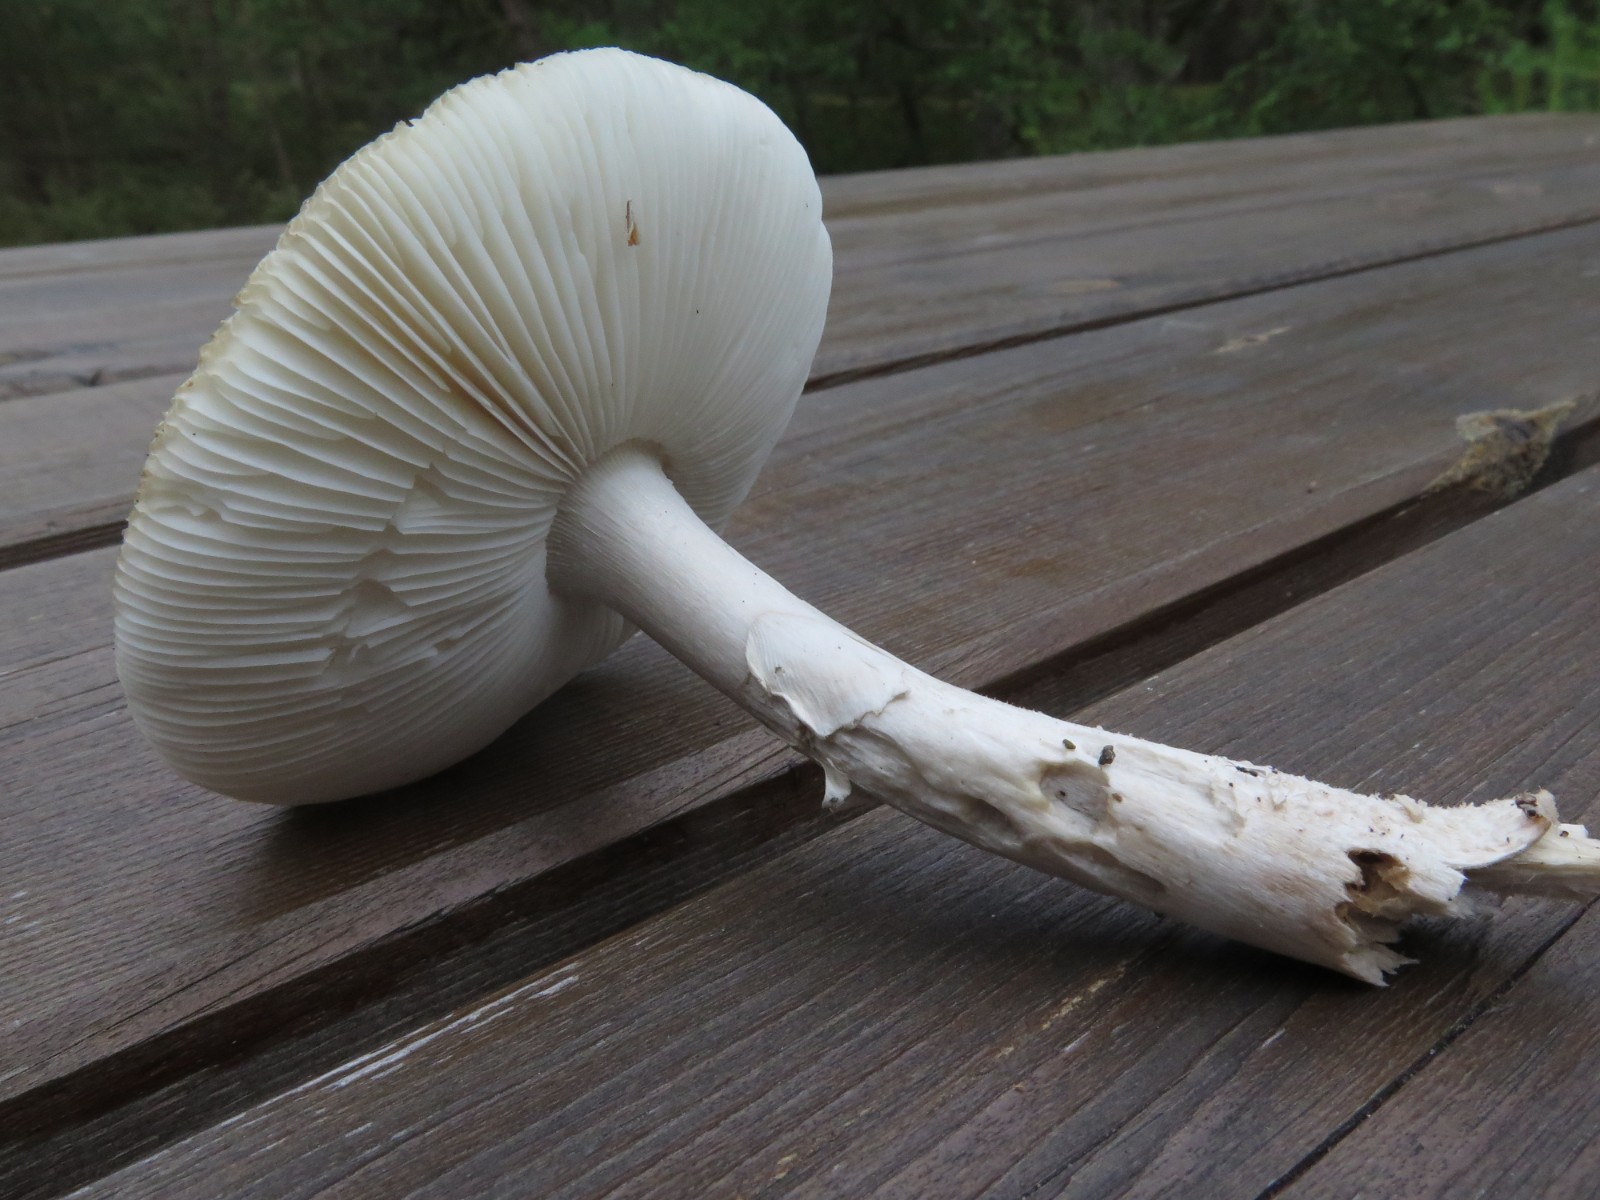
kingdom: Fungi
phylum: Basidiomycota
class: Agaricomycetes
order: Agaricales
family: Amanitaceae
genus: Amanita
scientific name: Amanita
